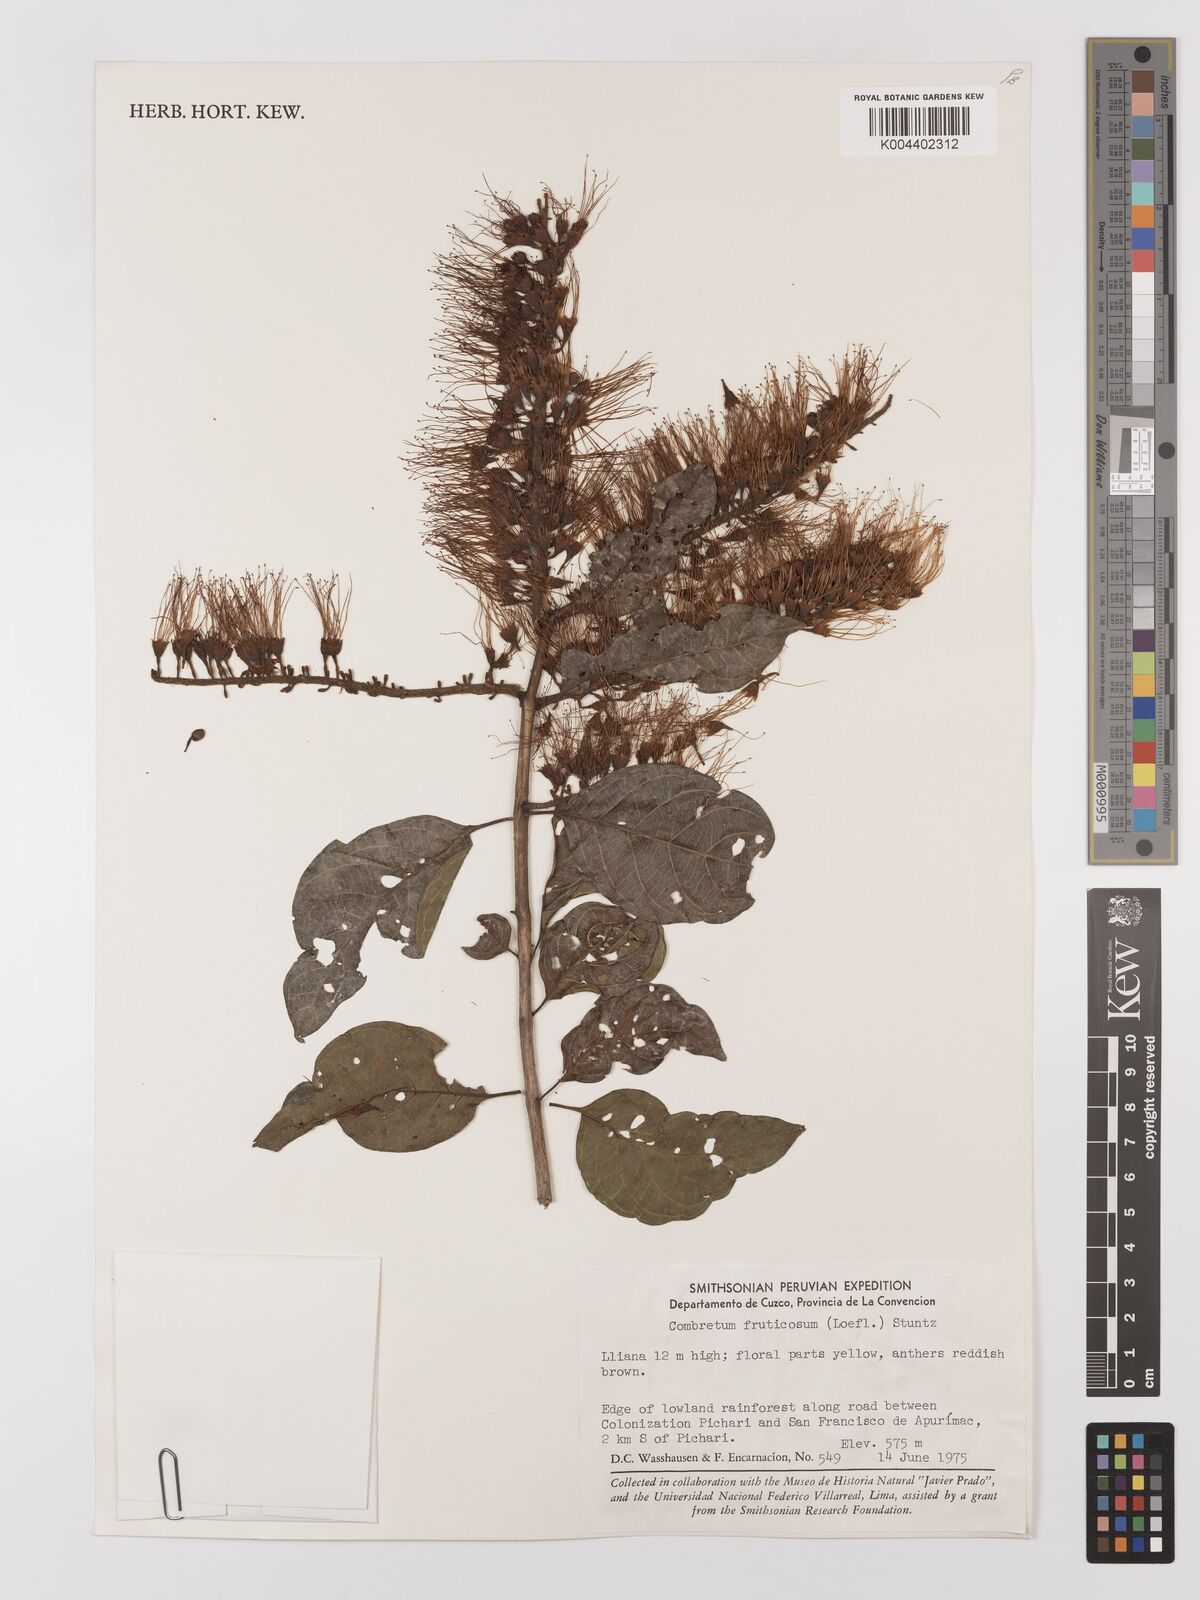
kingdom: Plantae
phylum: Tracheophyta
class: Magnoliopsida
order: Myrtales
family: Combretaceae
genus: Combretum
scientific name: Combretum fruticosum
